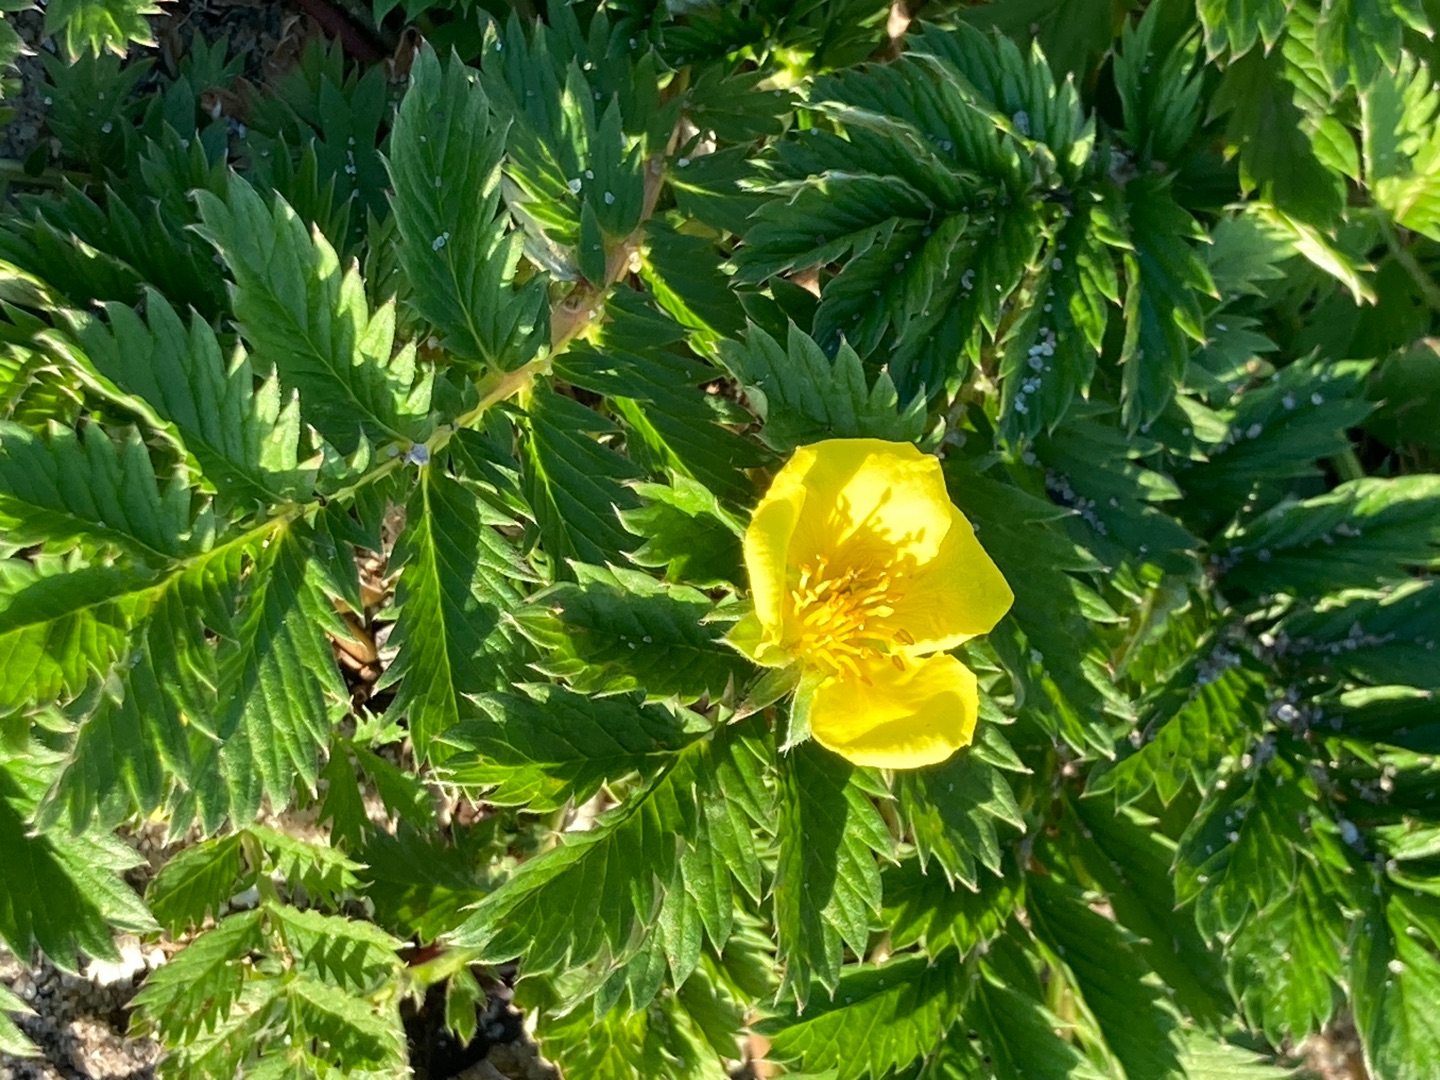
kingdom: Plantae
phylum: Tracheophyta
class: Magnoliopsida
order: Rosales
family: Rosaceae
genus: Argentina
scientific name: Argentina anserina
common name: Gåsepotentil
